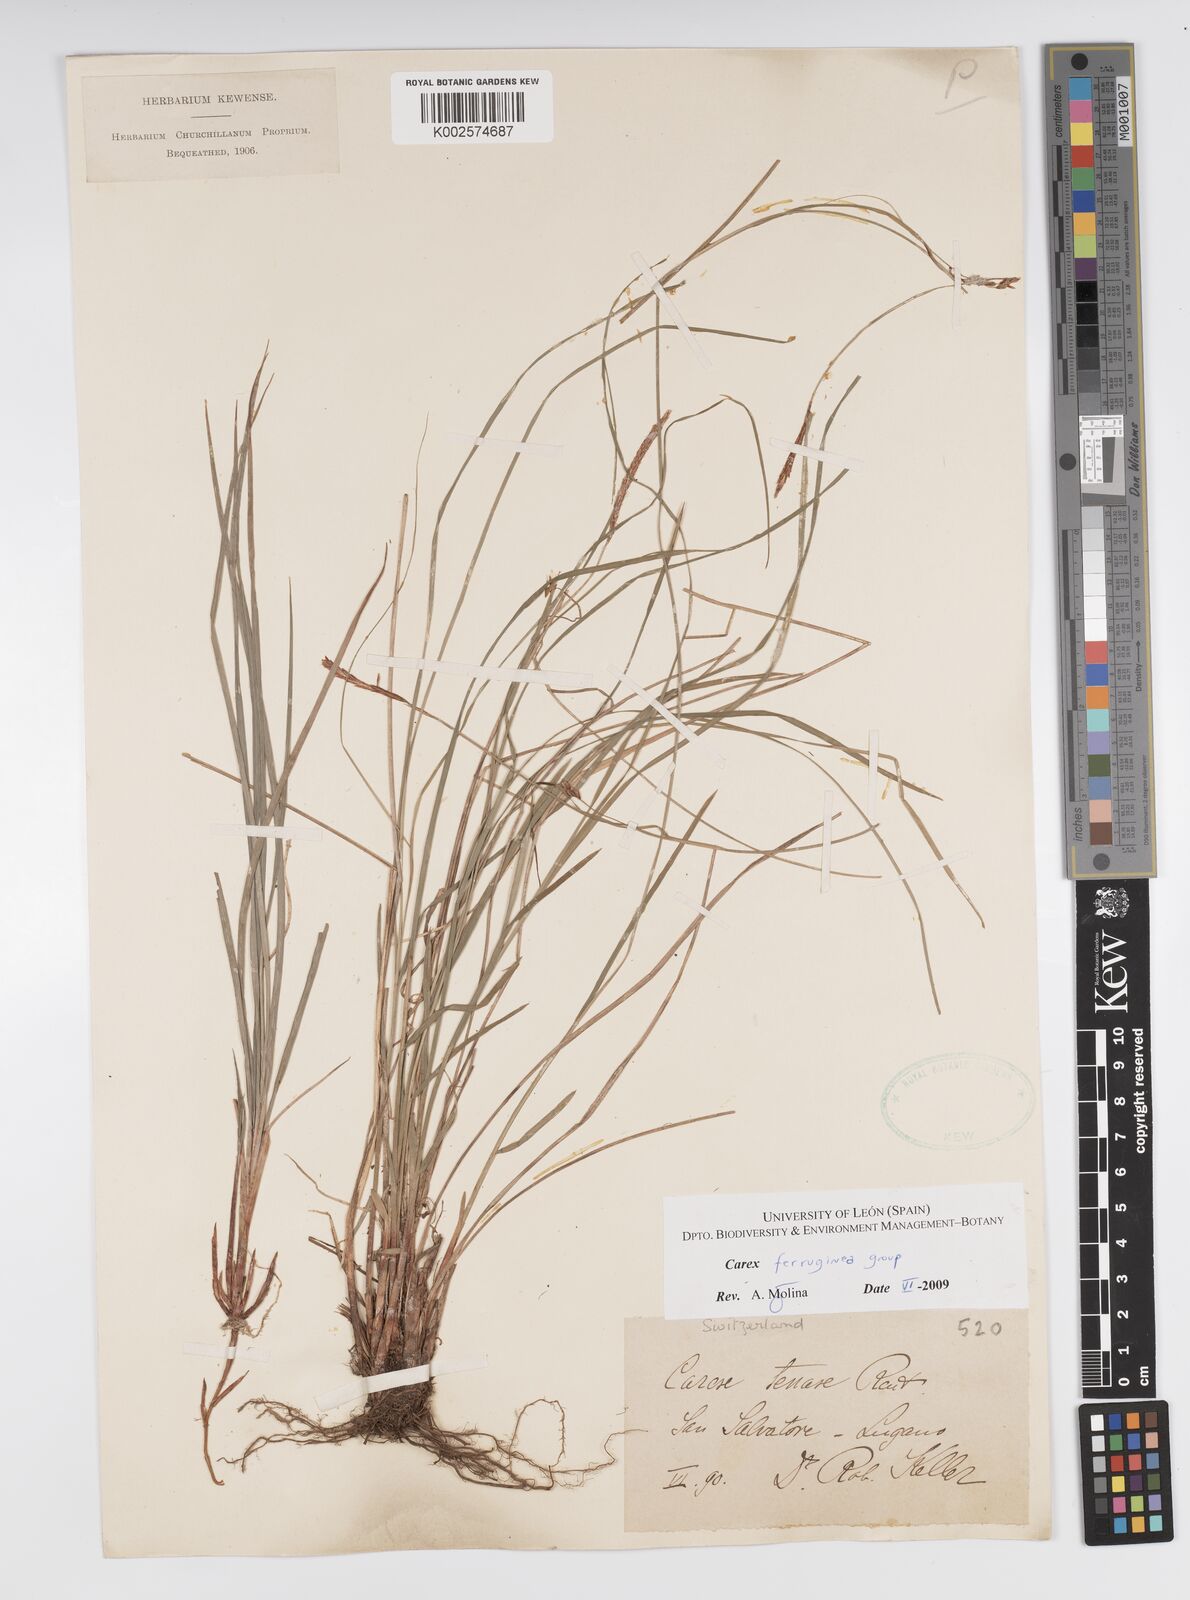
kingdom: Plantae
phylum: Tracheophyta
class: Liliopsida
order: Poales
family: Cyperaceae
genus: Carex
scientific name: Carex ferruginea
